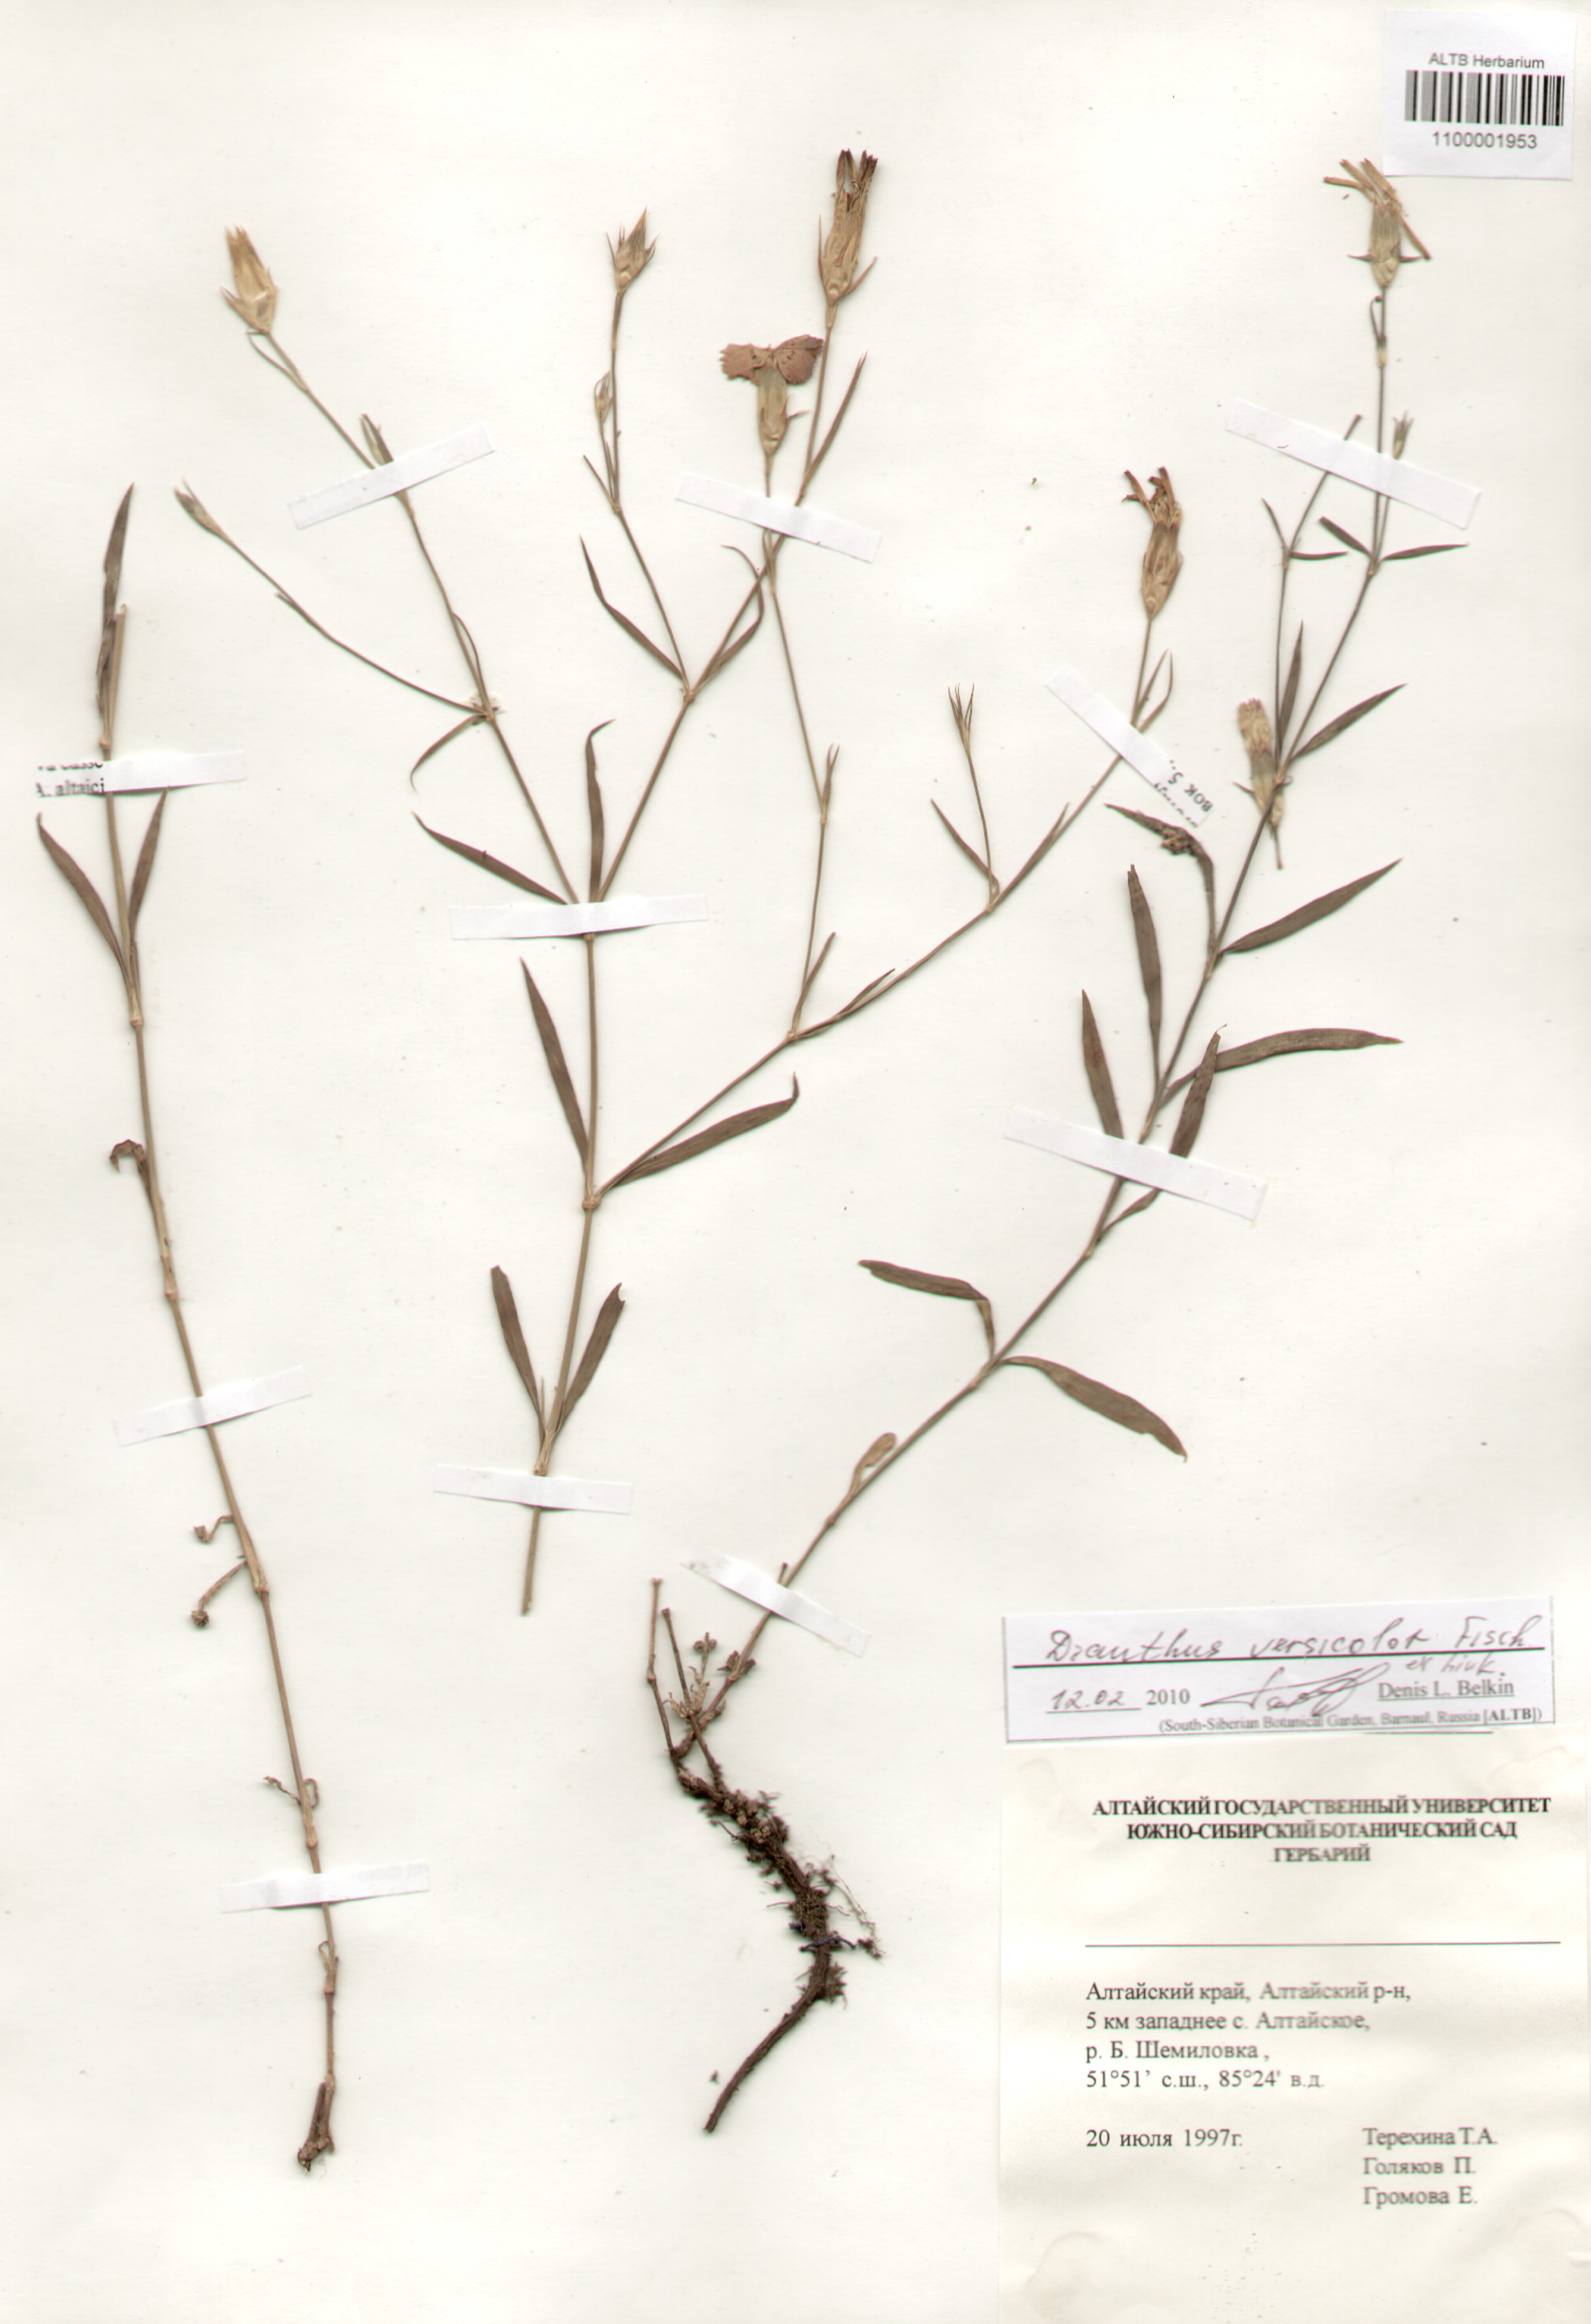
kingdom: Plantae
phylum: Tracheophyta
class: Magnoliopsida
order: Caryophyllales
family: Caryophyllaceae
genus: Dianthus
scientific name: Dianthus chinensis
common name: Rainbow pink
